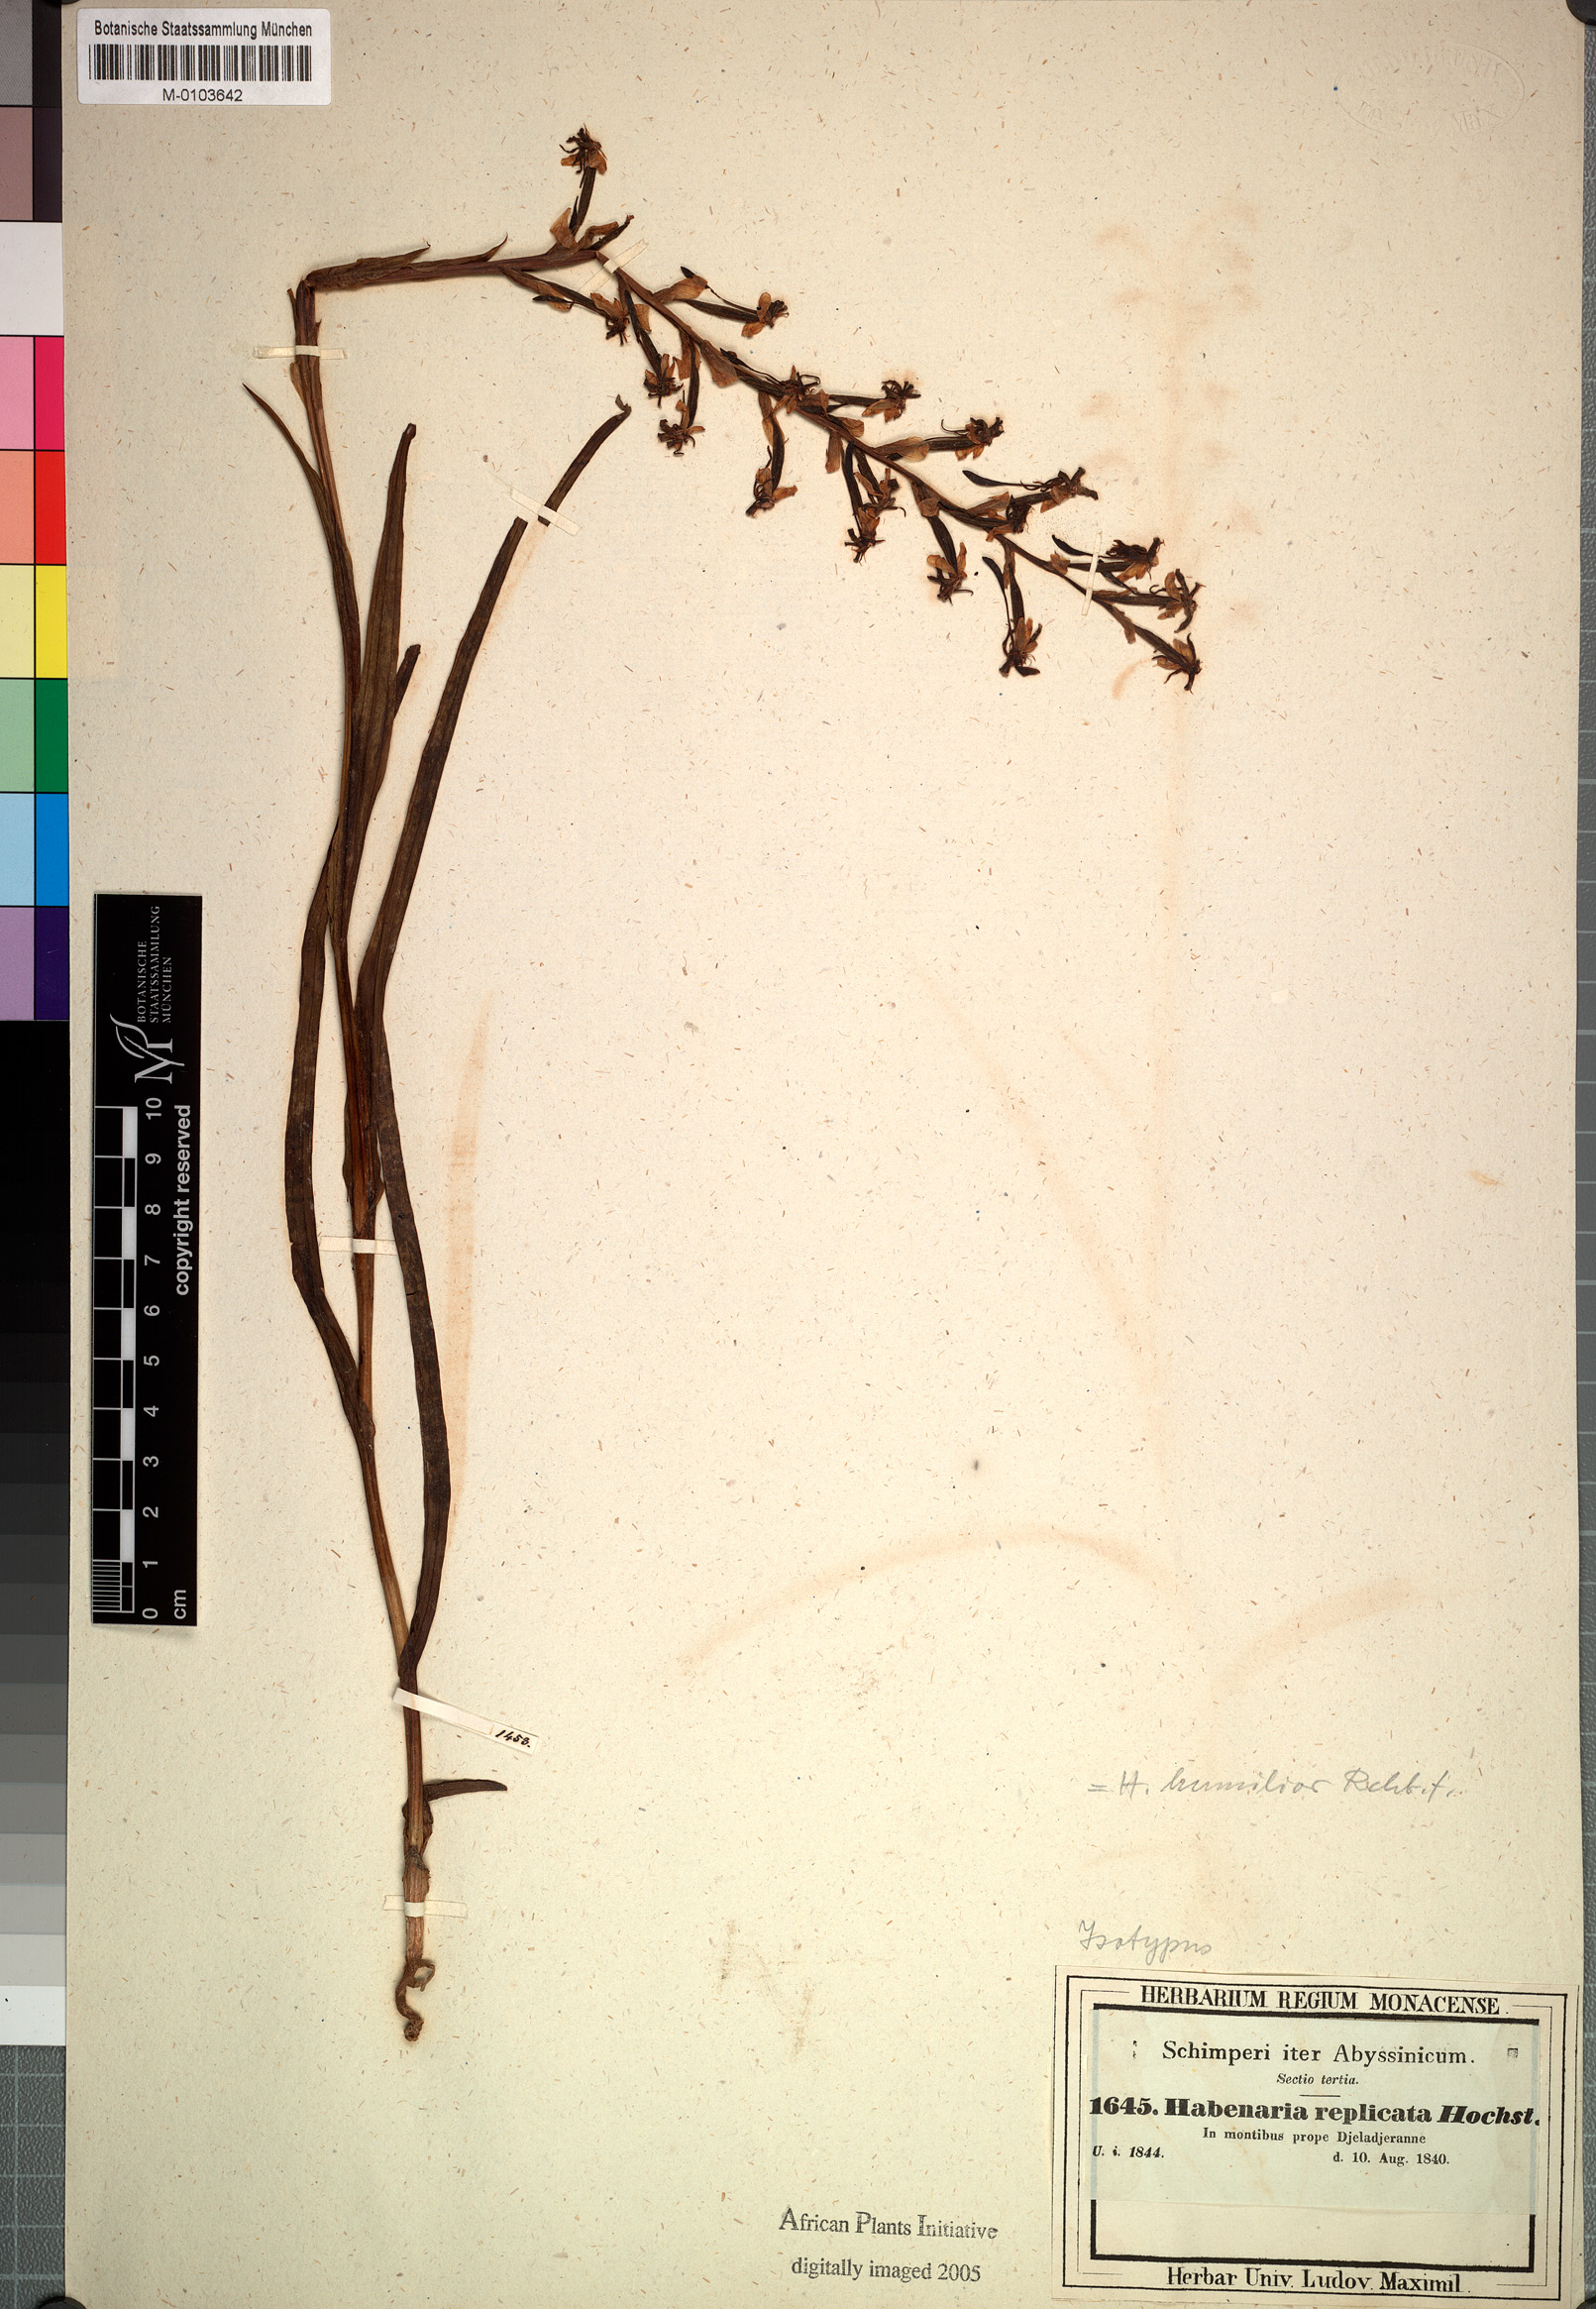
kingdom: Plantae
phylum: Tracheophyta
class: Liliopsida
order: Asparagales
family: Orchidaceae
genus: Habenaria
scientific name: Habenaria humilior
